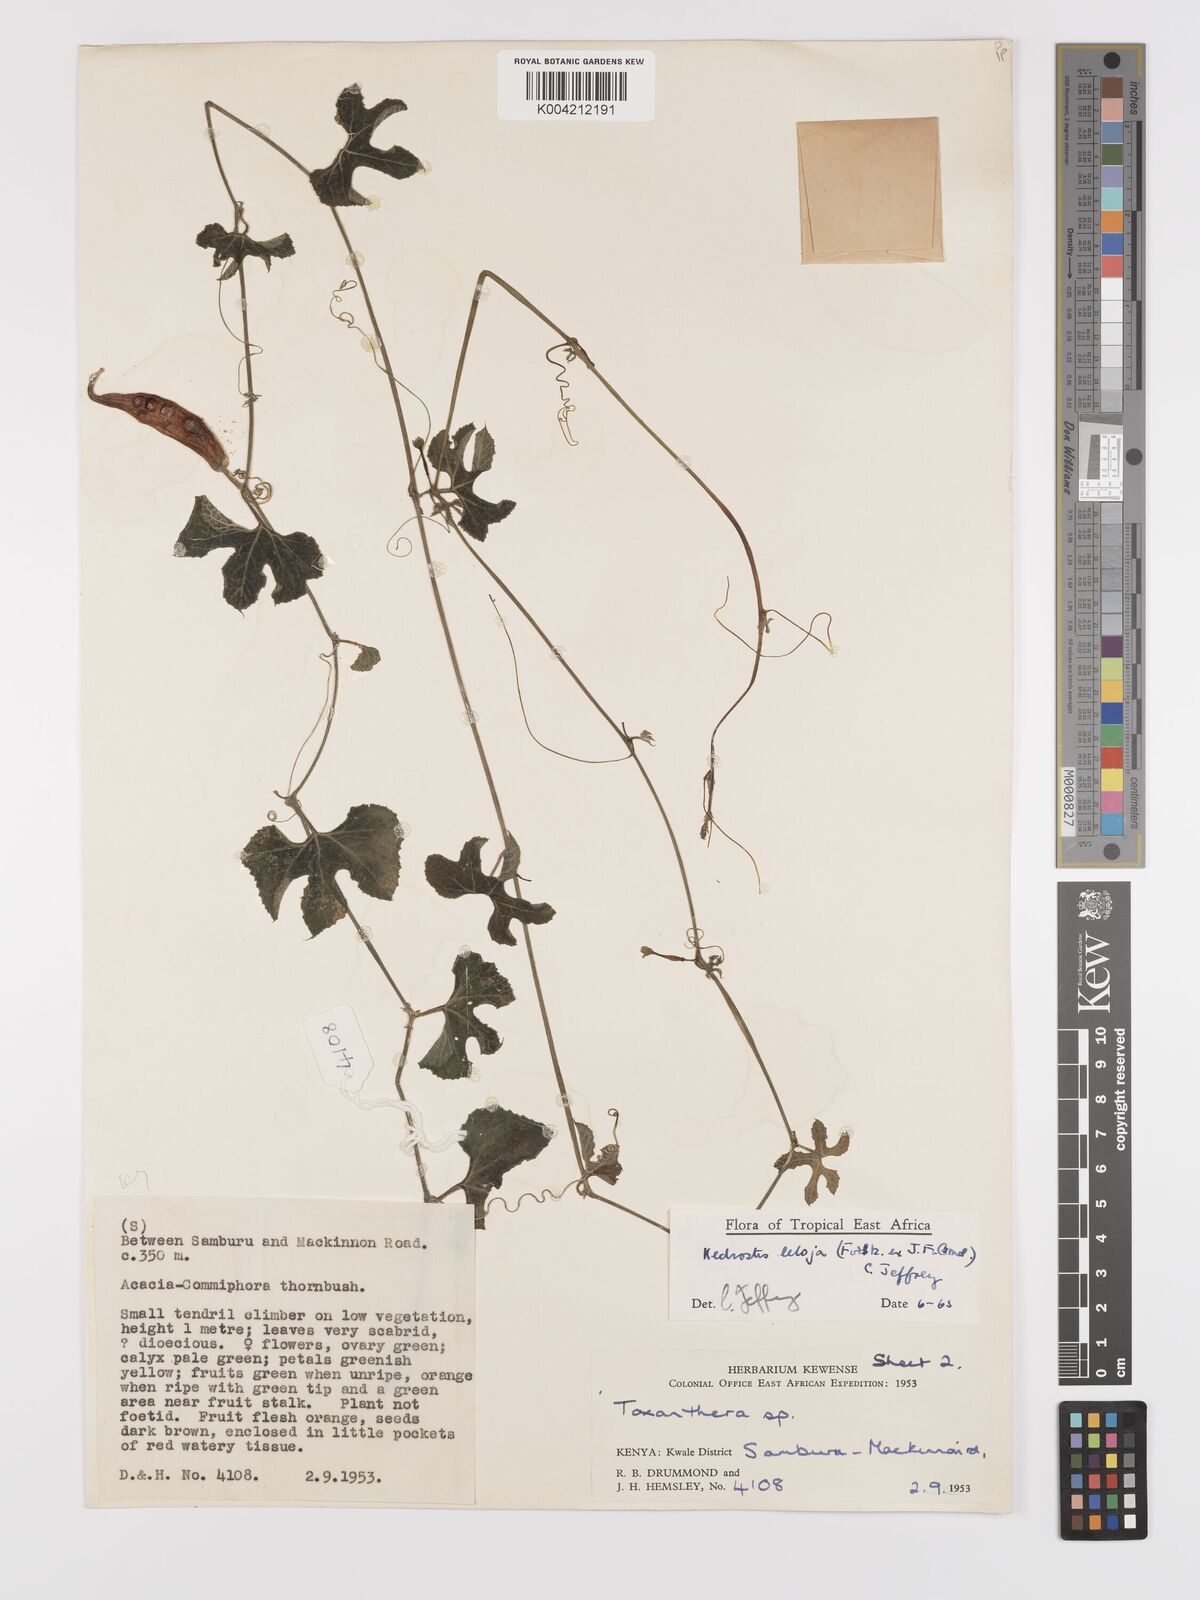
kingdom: Plantae
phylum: Tracheophyta
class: Magnoliopsida
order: Cucurbitales
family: Cucurbitaceae
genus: Kedrostis
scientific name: Kedrostis abdallae
